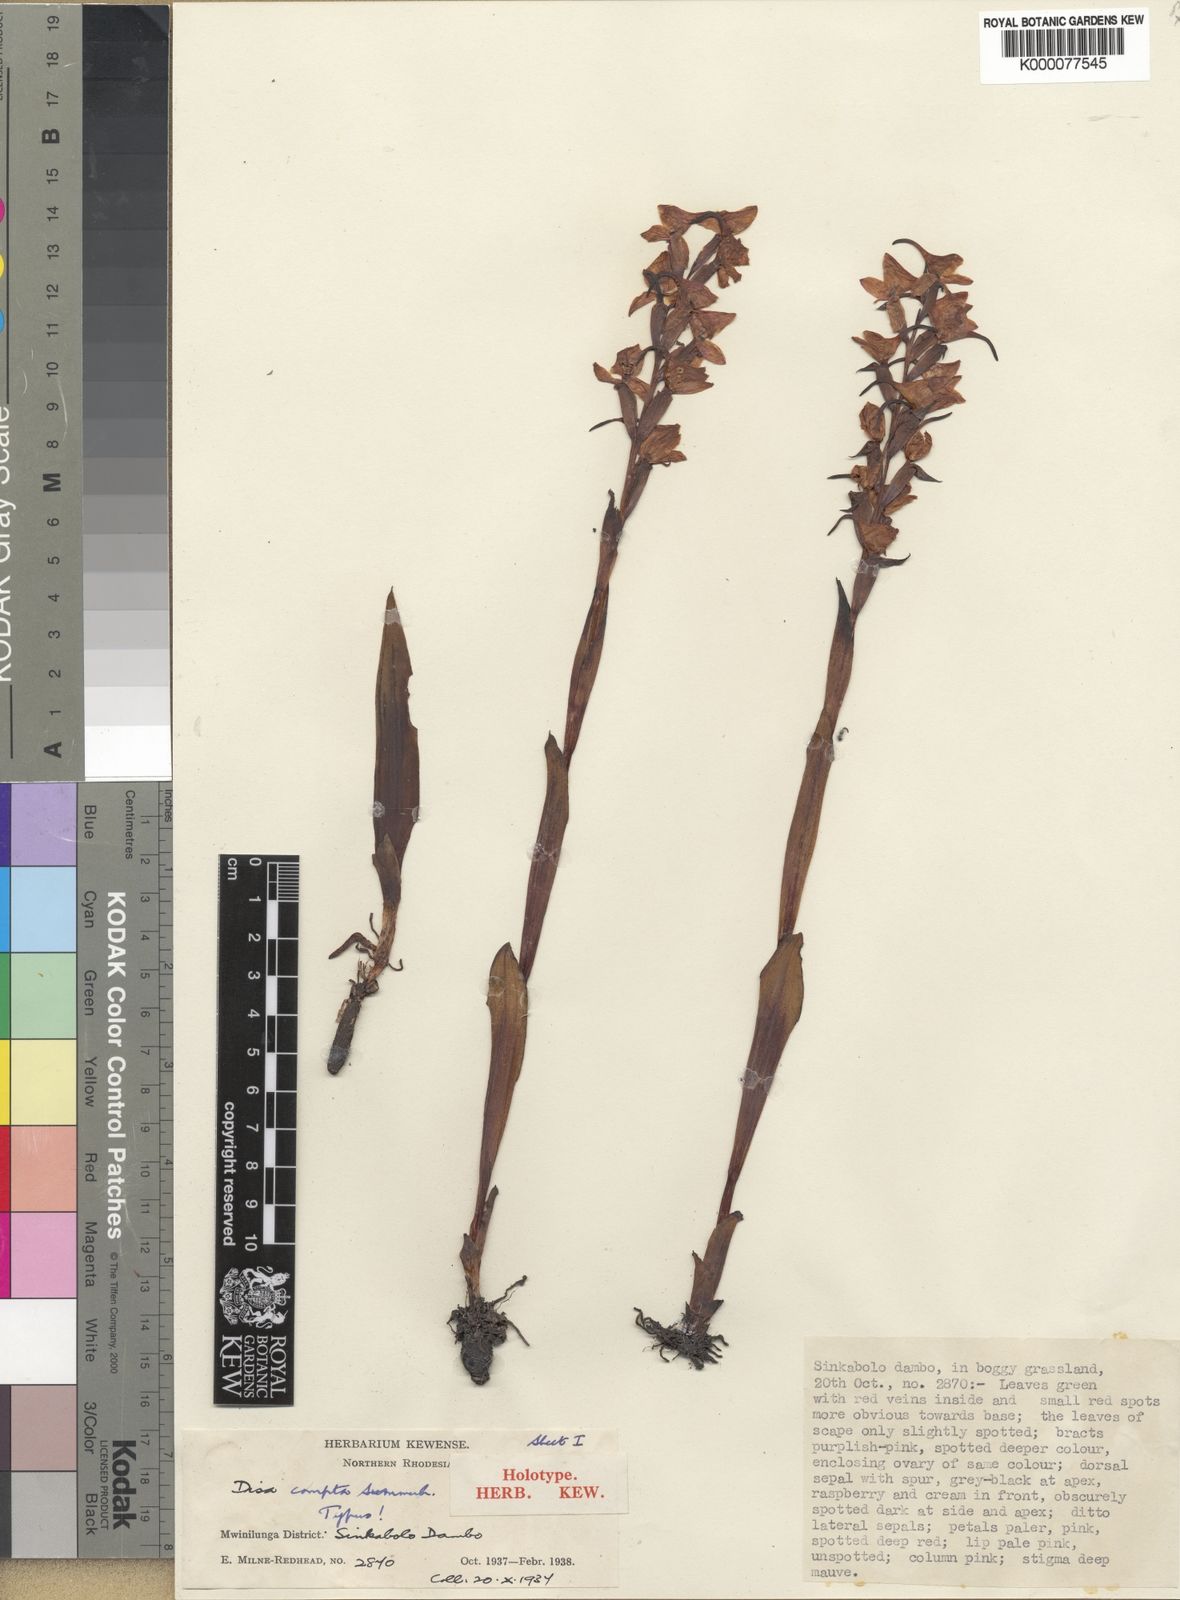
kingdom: Plantae
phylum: Tracheophyta
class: Liliopsida
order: Asparagales
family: Orchidaceae
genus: Disa
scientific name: Disa caffra
